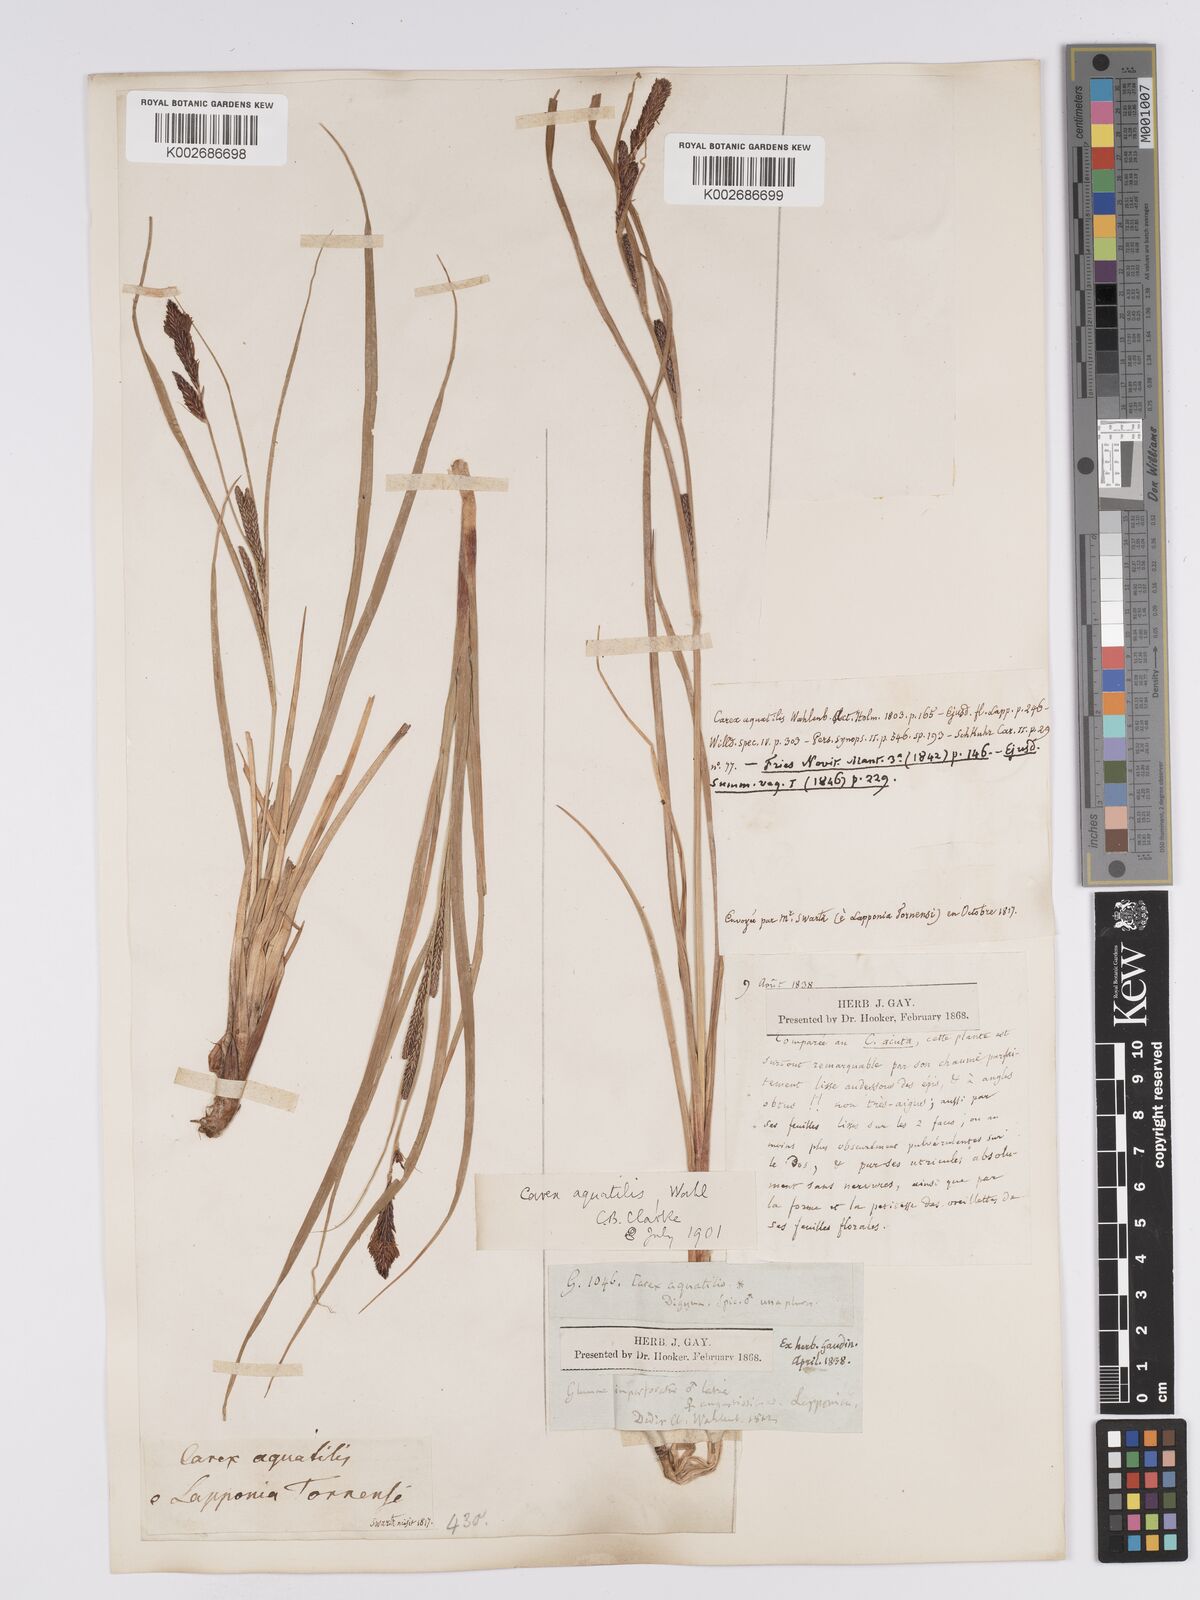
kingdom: Plantae
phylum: Tracheophyta
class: Liliopsida
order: Poales
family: Cyperaceae
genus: Carex
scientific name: Carex aquatilis
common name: Water sedge
